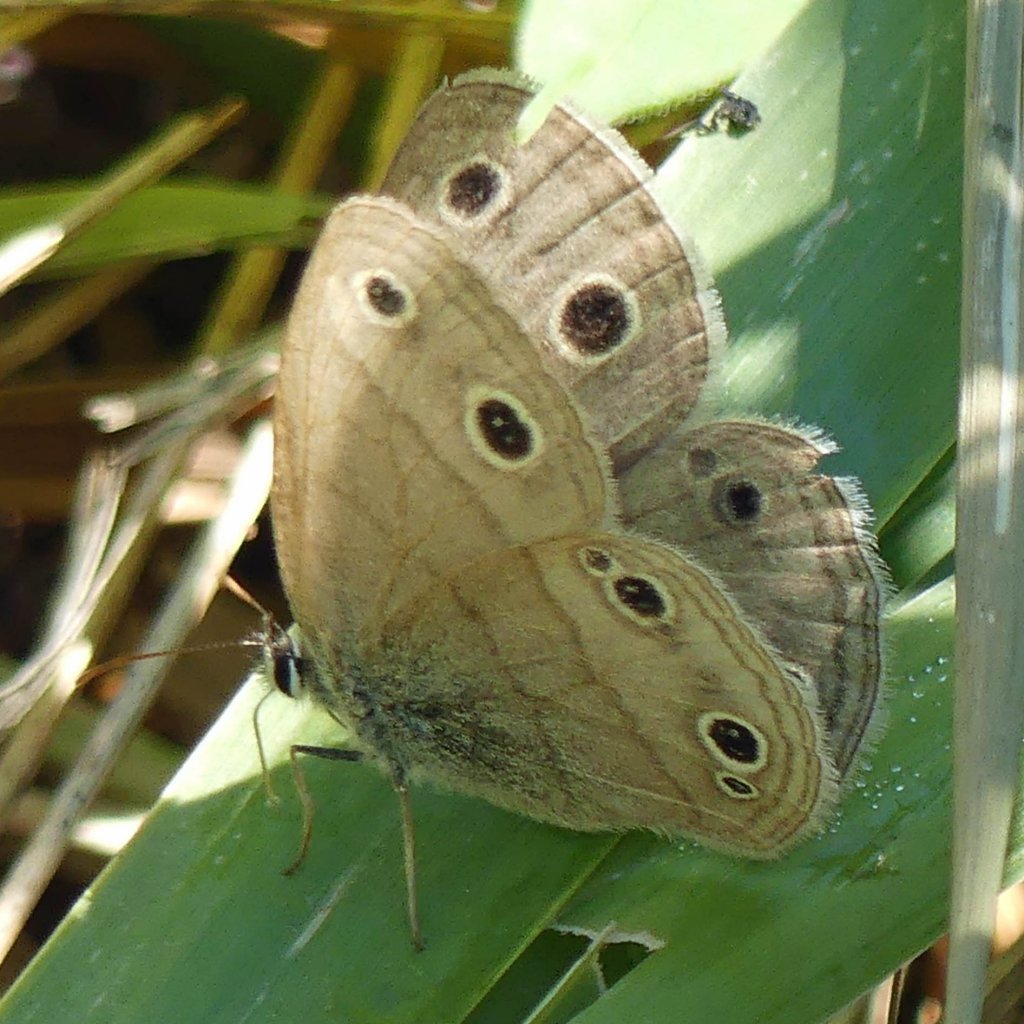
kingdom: Animalia
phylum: Arthropoda
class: Insecta
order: Lepidoptera
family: Nymphalidae
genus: Euptychia
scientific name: Euptychia cymela
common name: Little Wood Satyr
